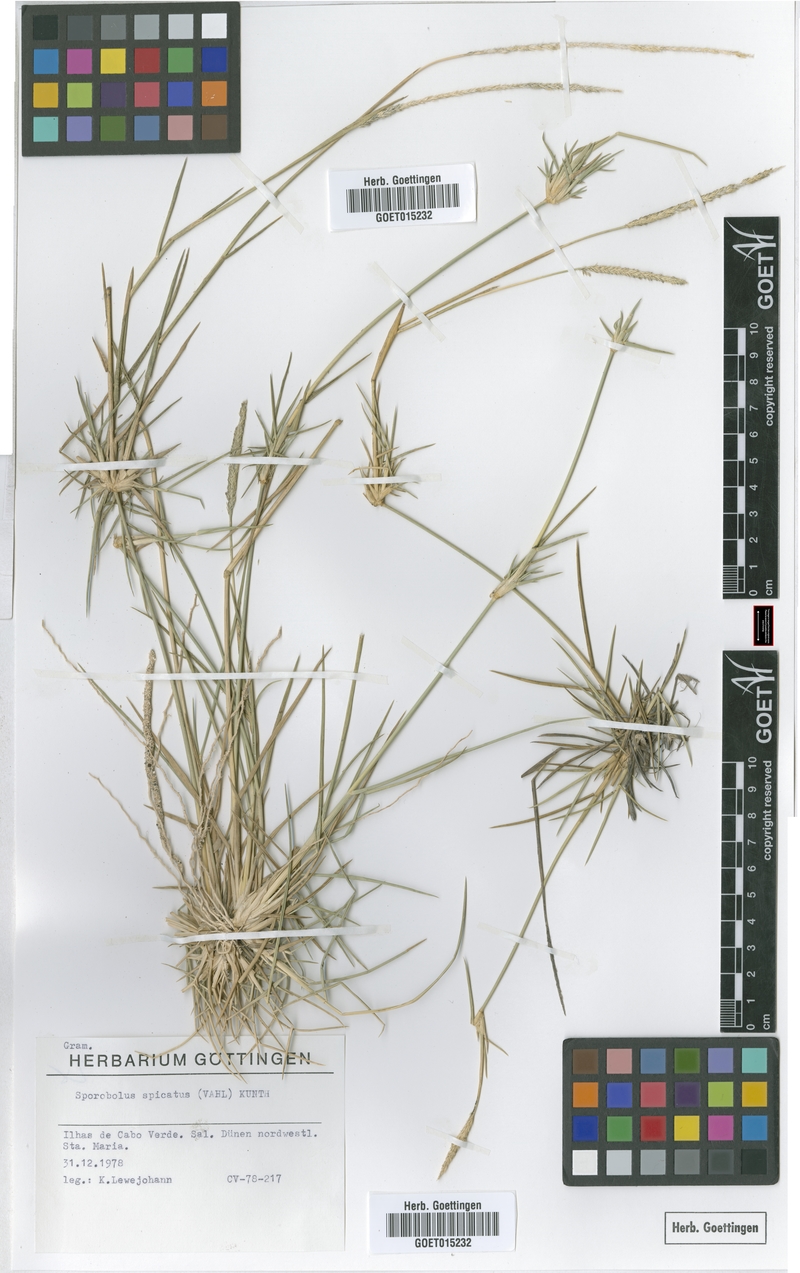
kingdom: Plantae
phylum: Tracheophyta
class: Liliopsida
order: Poales
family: Poaceae
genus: Sporobolus
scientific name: Sporobolus spicatus
